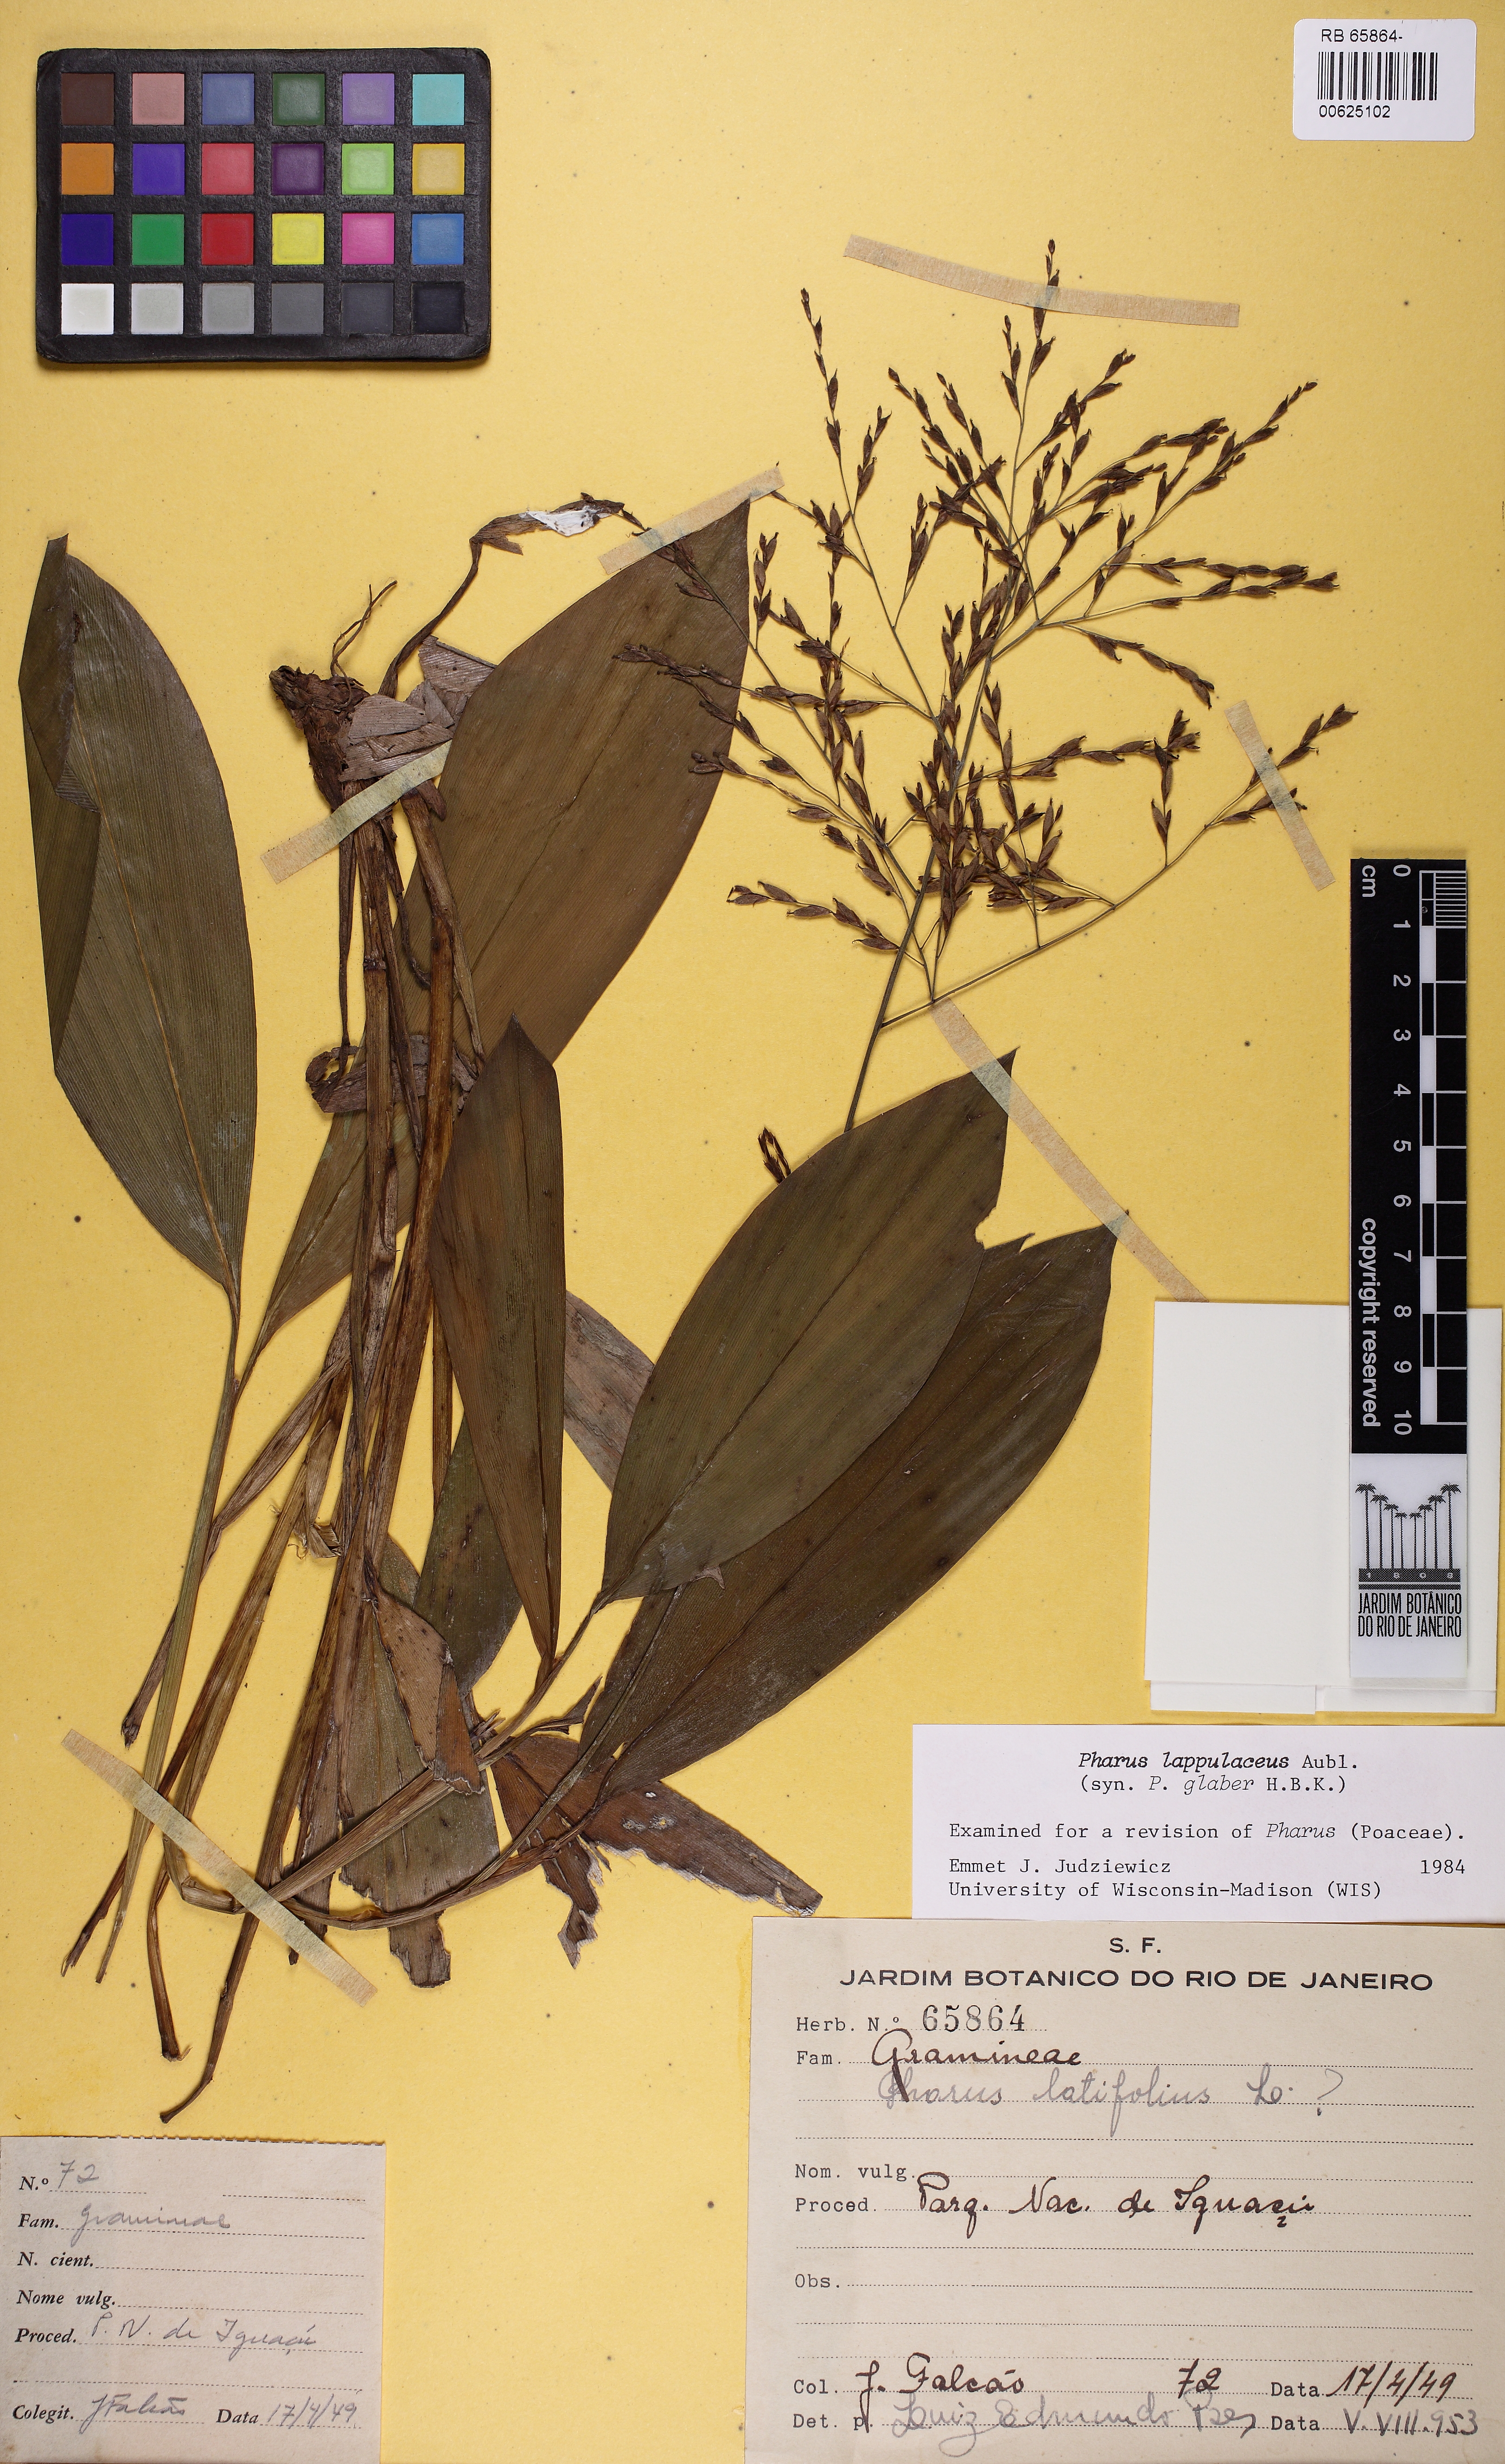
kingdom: Plantae
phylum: Tracheophyta
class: Liliopsida
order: Poales
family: Poaceae
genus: Pharus
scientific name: Pharus lappulaceus
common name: Creeping leafstalk grass
